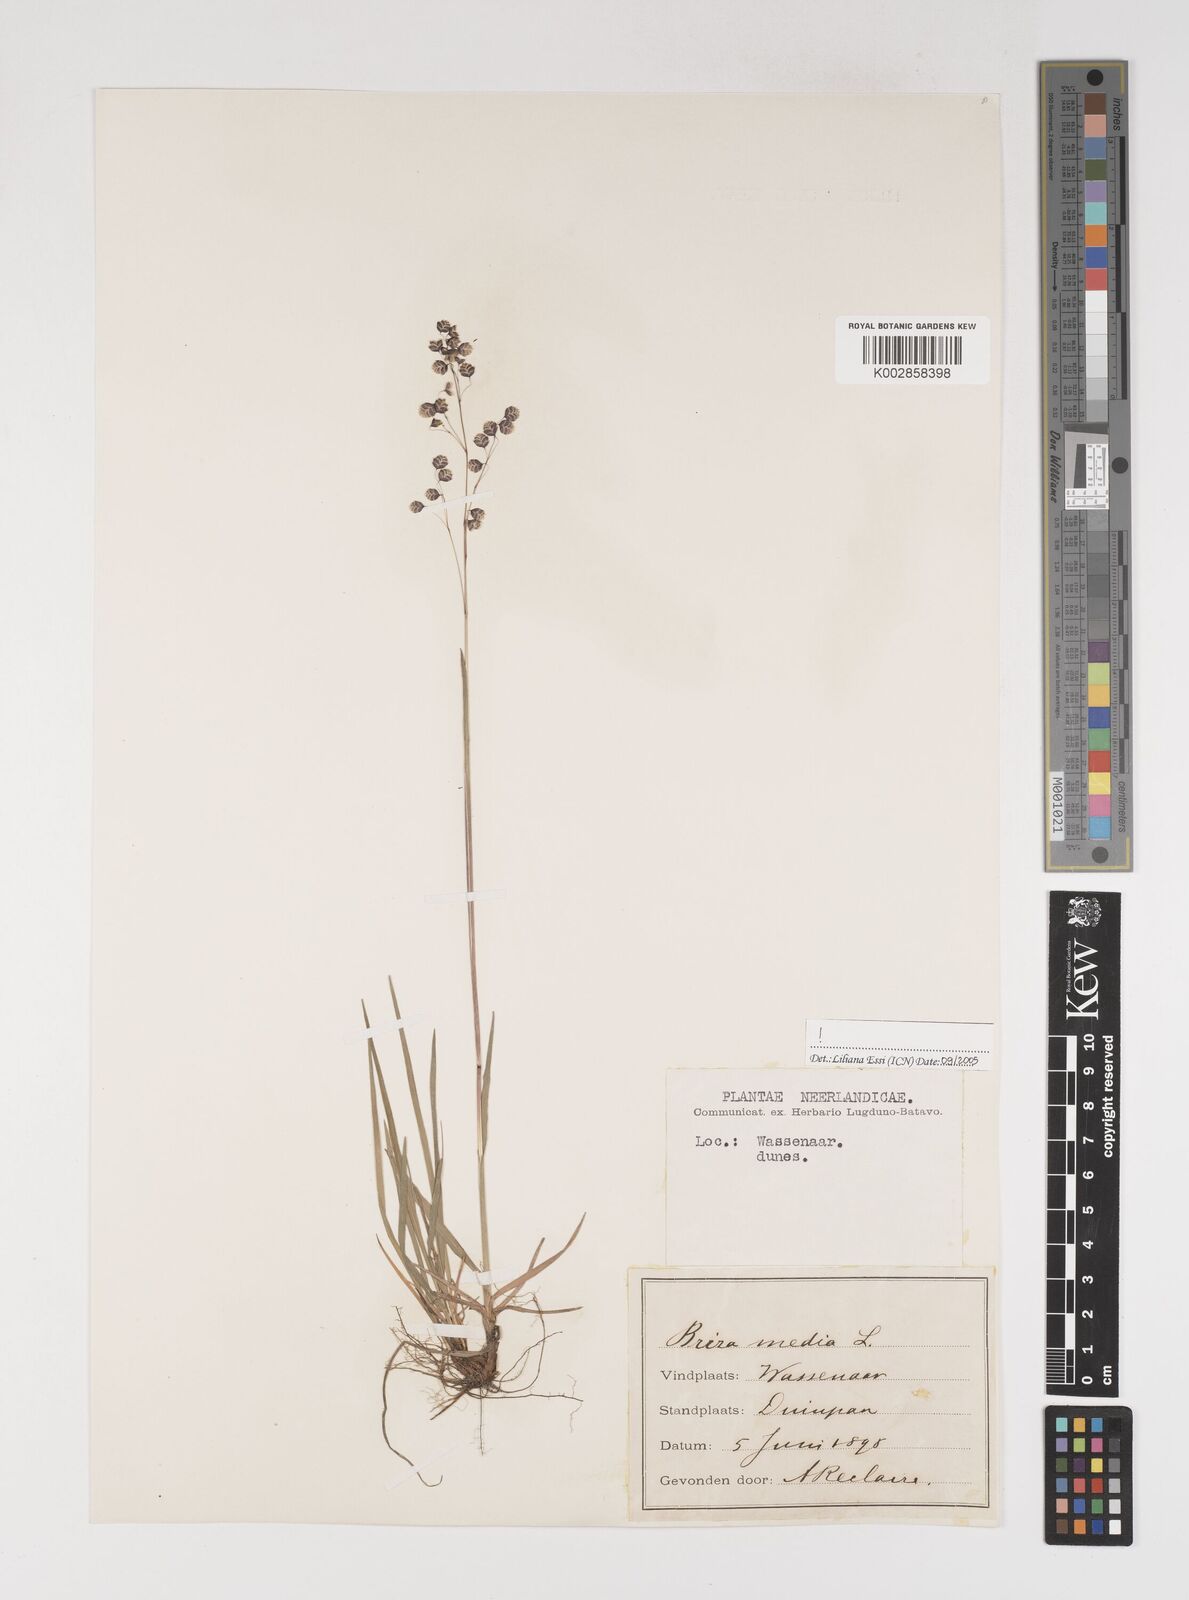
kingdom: Plantae
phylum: Tracheophyta
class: Liliopsida
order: Poales
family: Poaceae
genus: Briza
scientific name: Briza media
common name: Quaking grass
